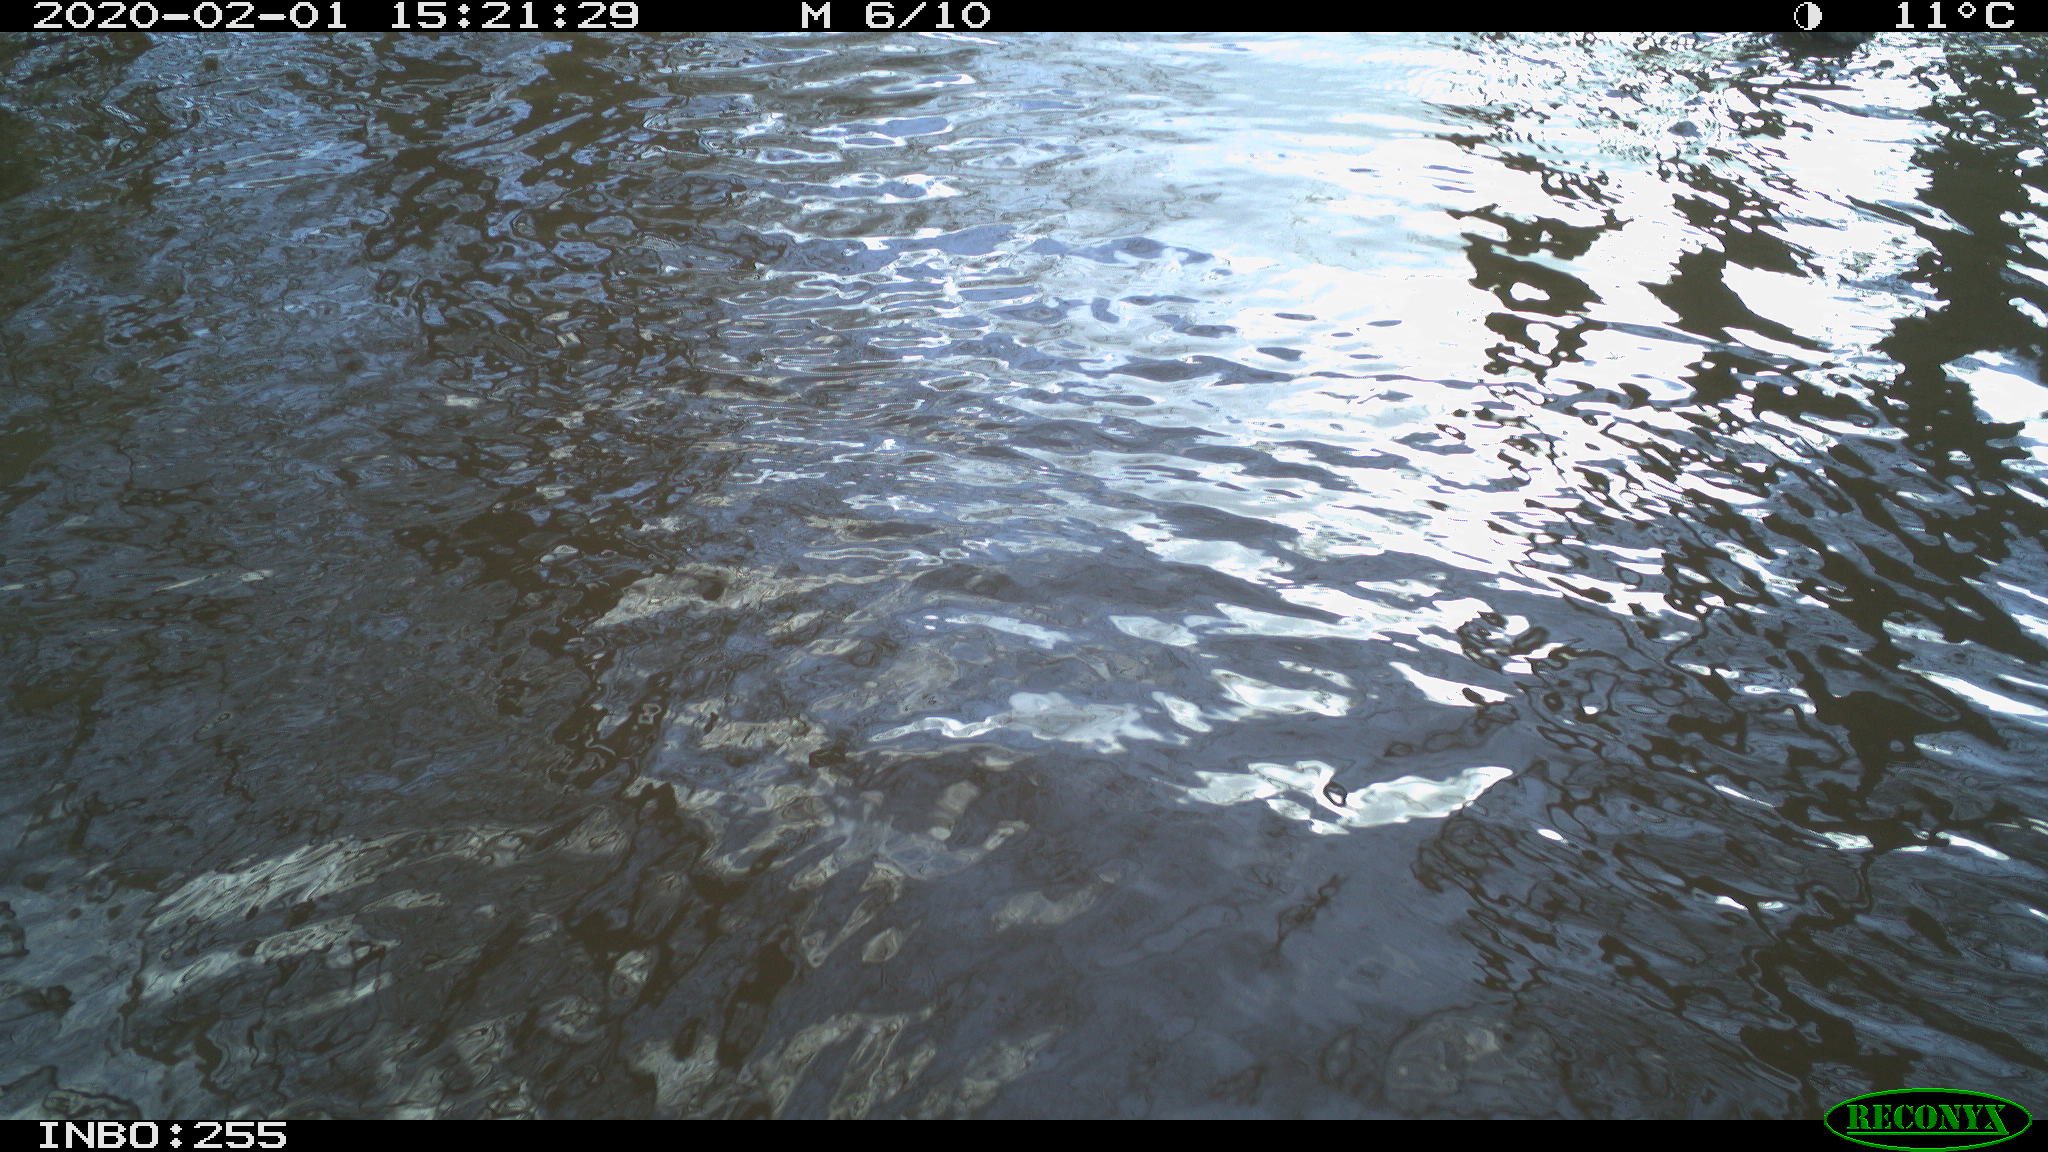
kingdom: Animalia
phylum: Chordata
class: Aves
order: Gruiformes
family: Rallidae
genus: Fulica
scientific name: Fulica atra
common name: Eurasian coot
